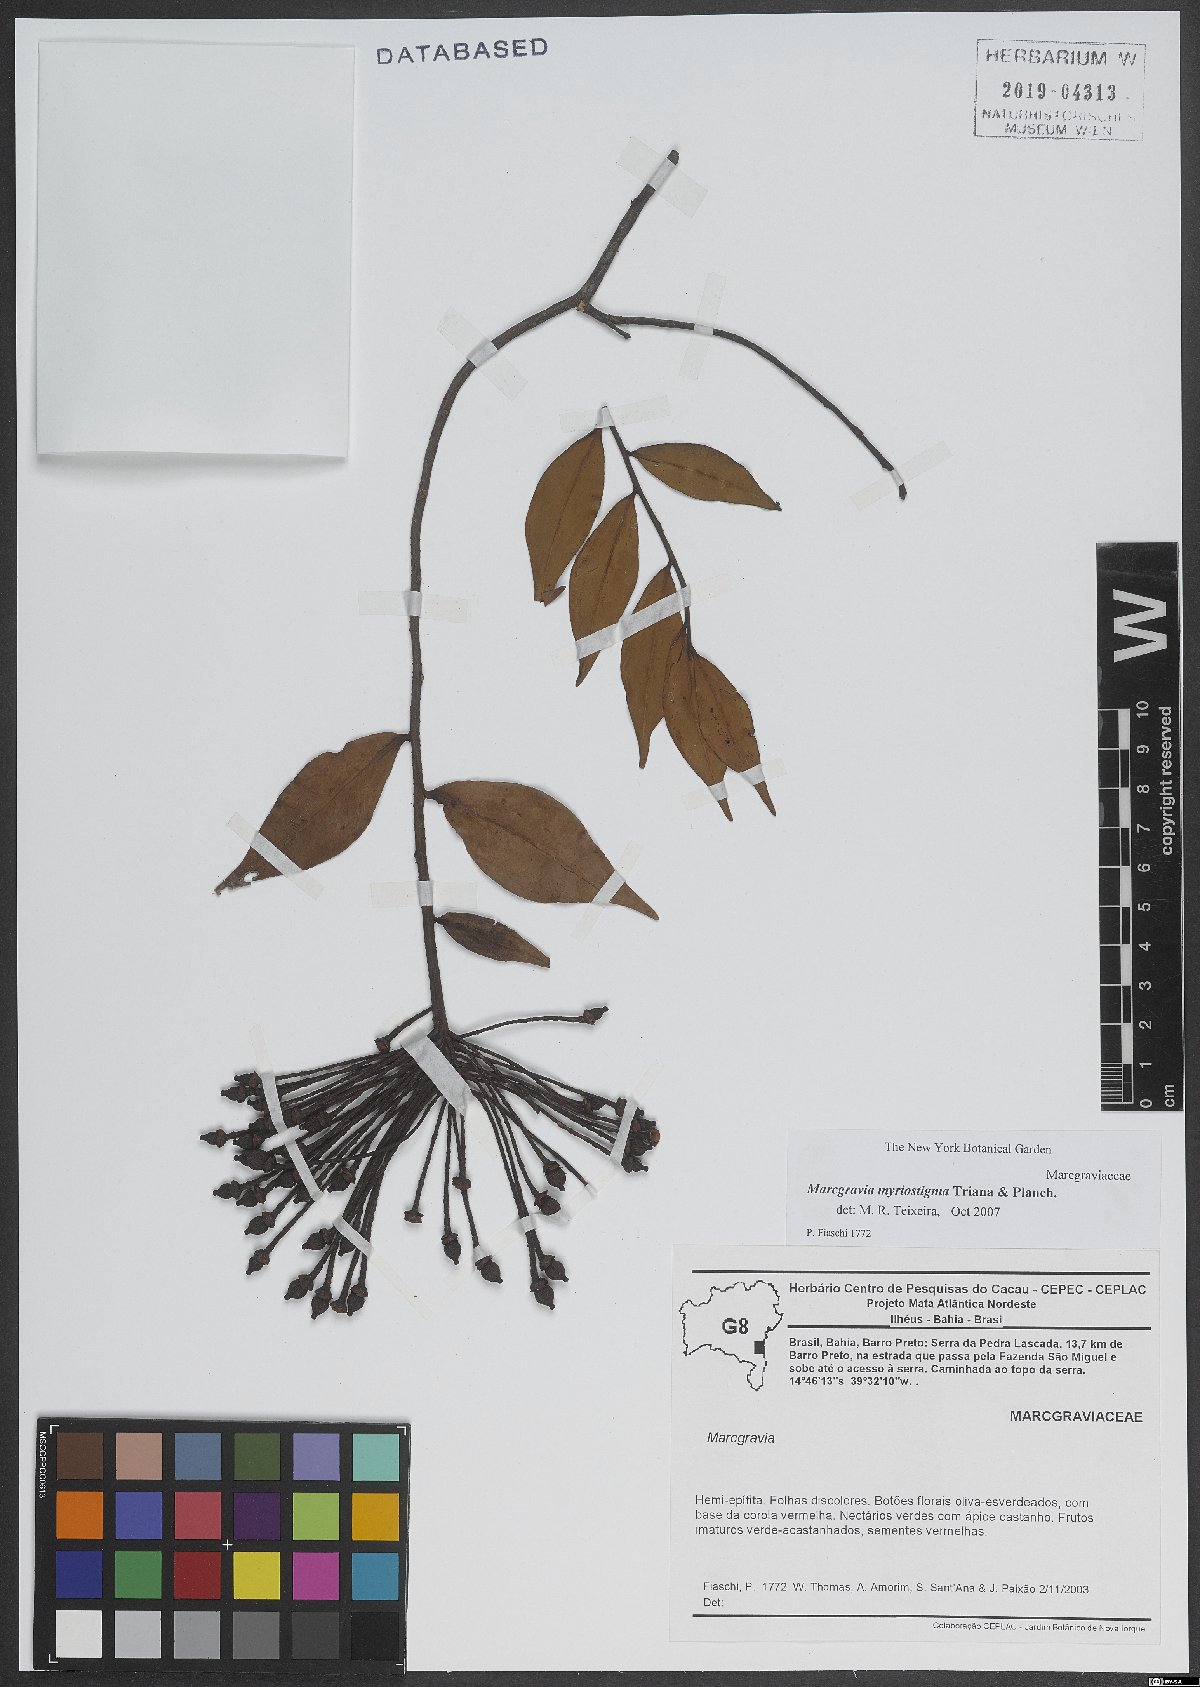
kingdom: Plantae
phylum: Tracheophyta
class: Magnoliopsida
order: Ericales
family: Marcgraviaceae
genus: Marcgravia
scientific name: Marcgravia myriostigma
